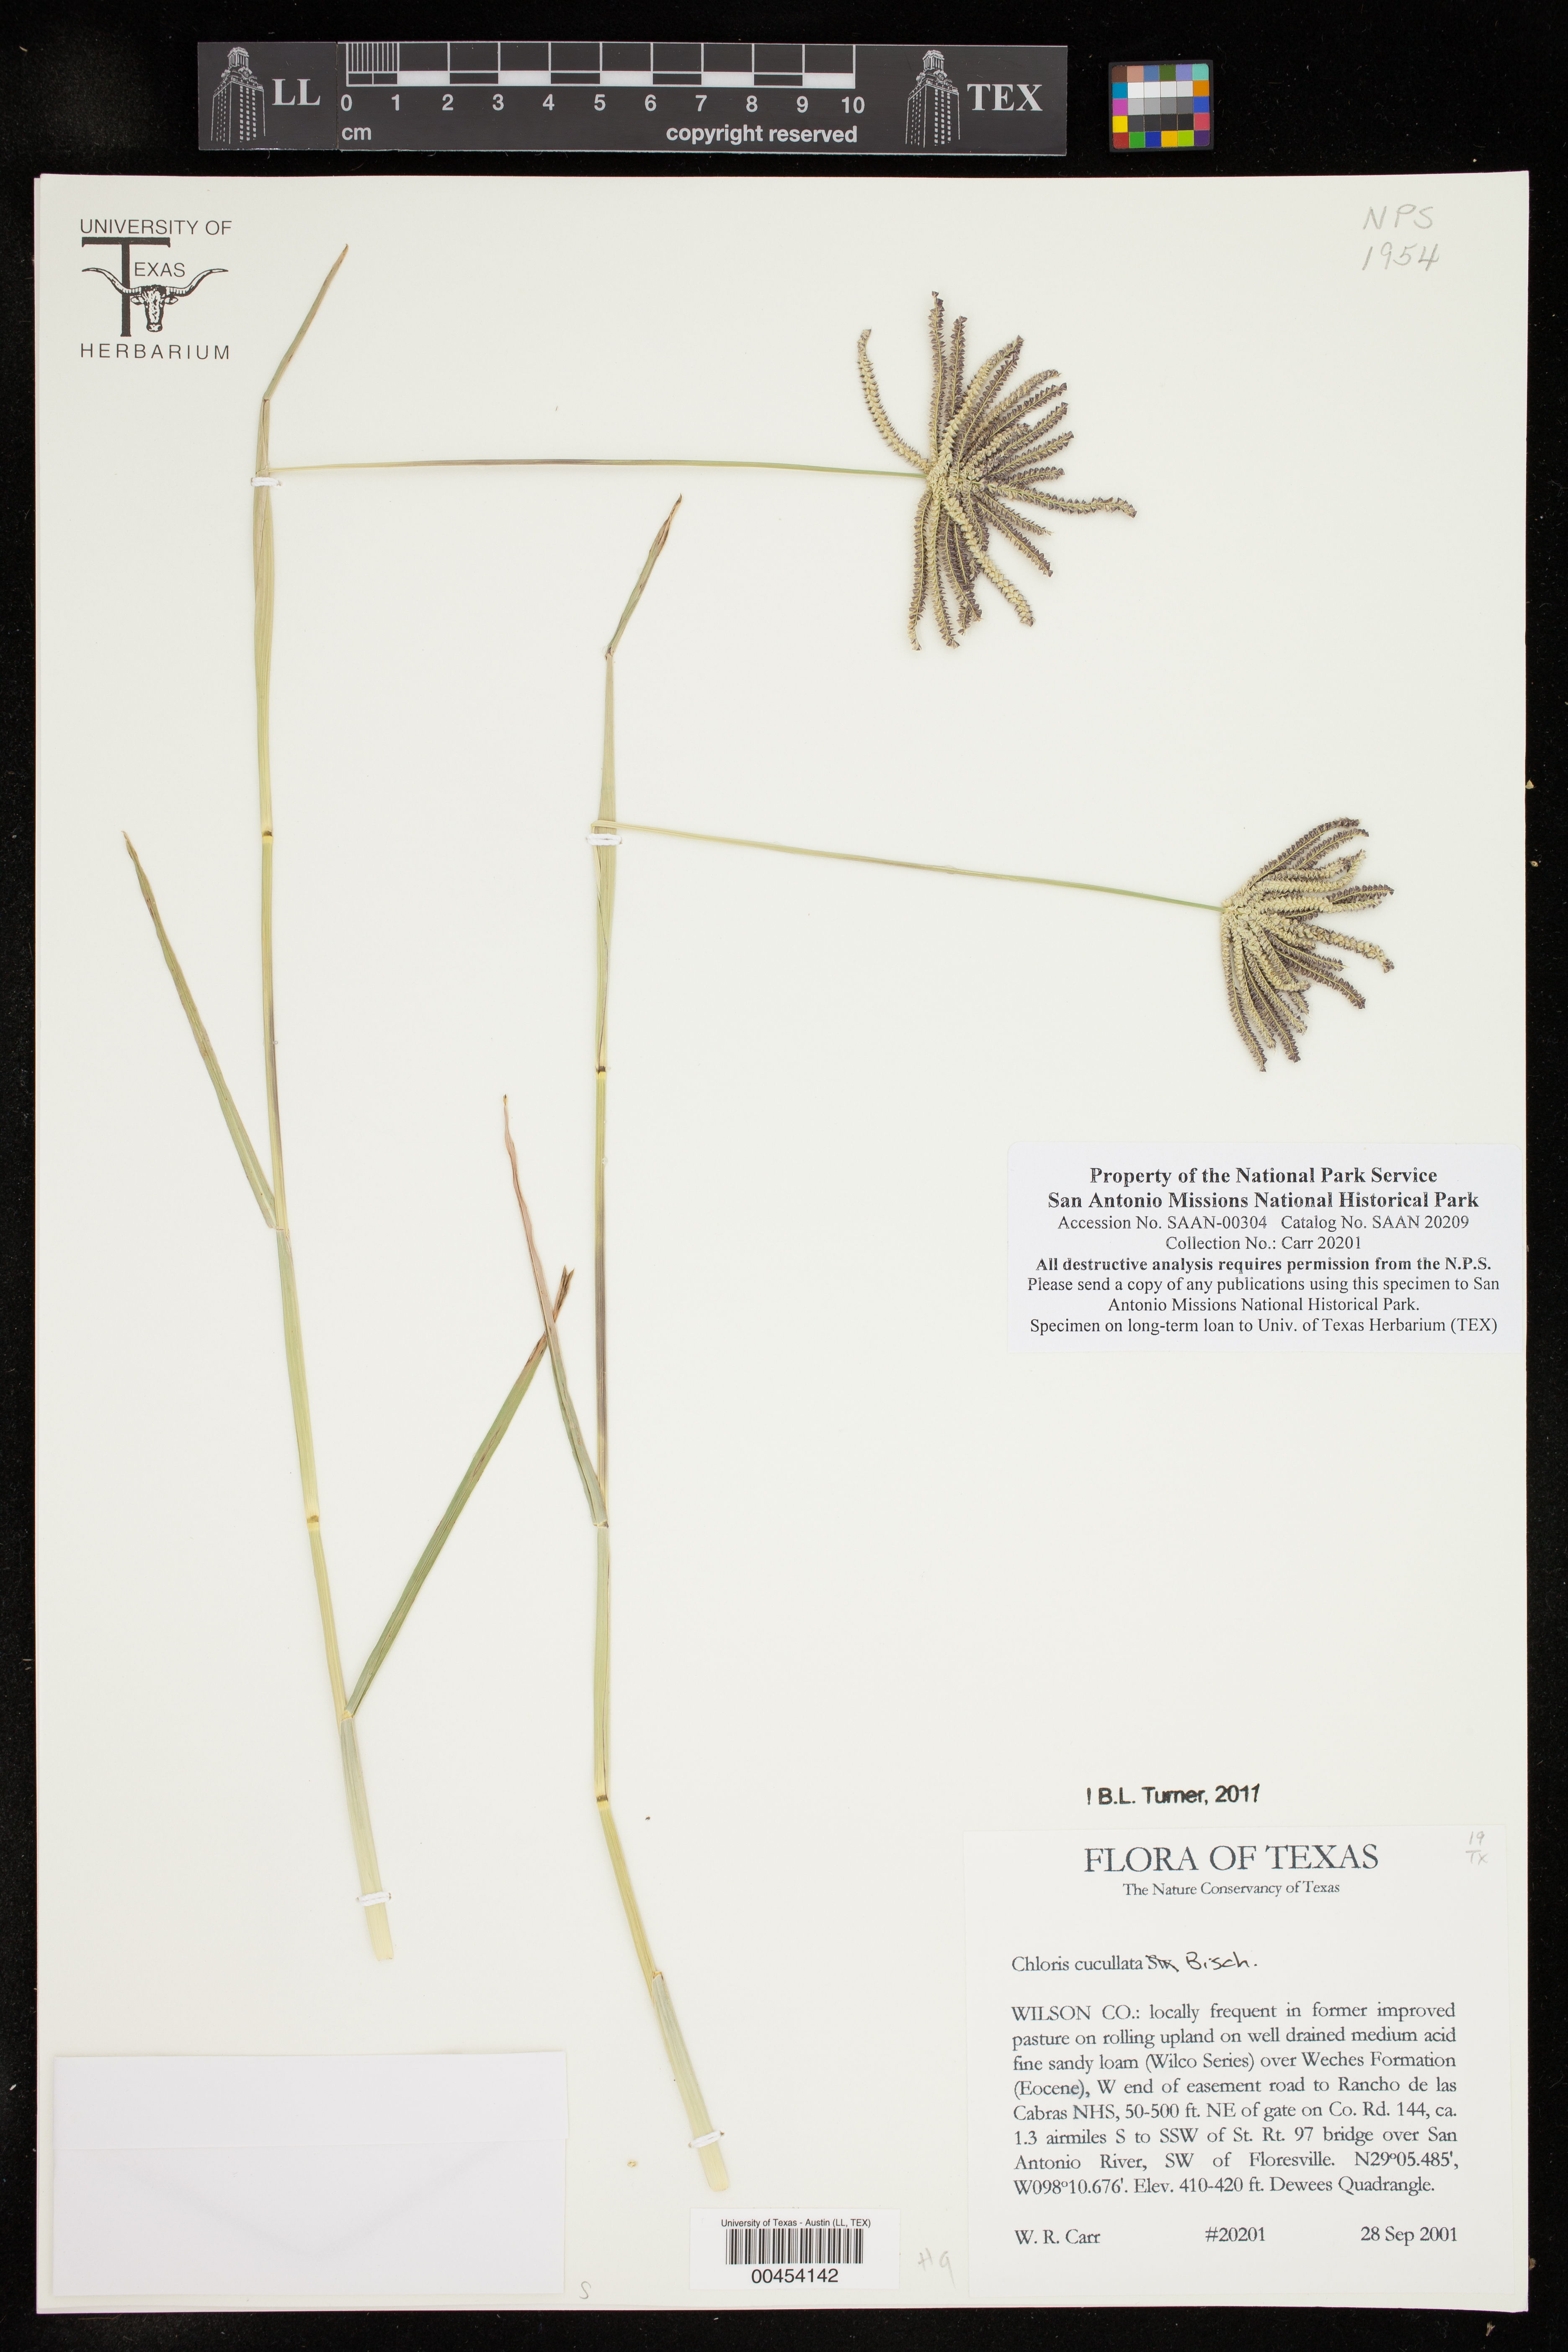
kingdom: Plantae
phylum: Tracheophyta
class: Liliopsida
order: Poales
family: Poaceae
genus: Chloris
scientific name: Chloris cucullata
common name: Hooded windmill grass
